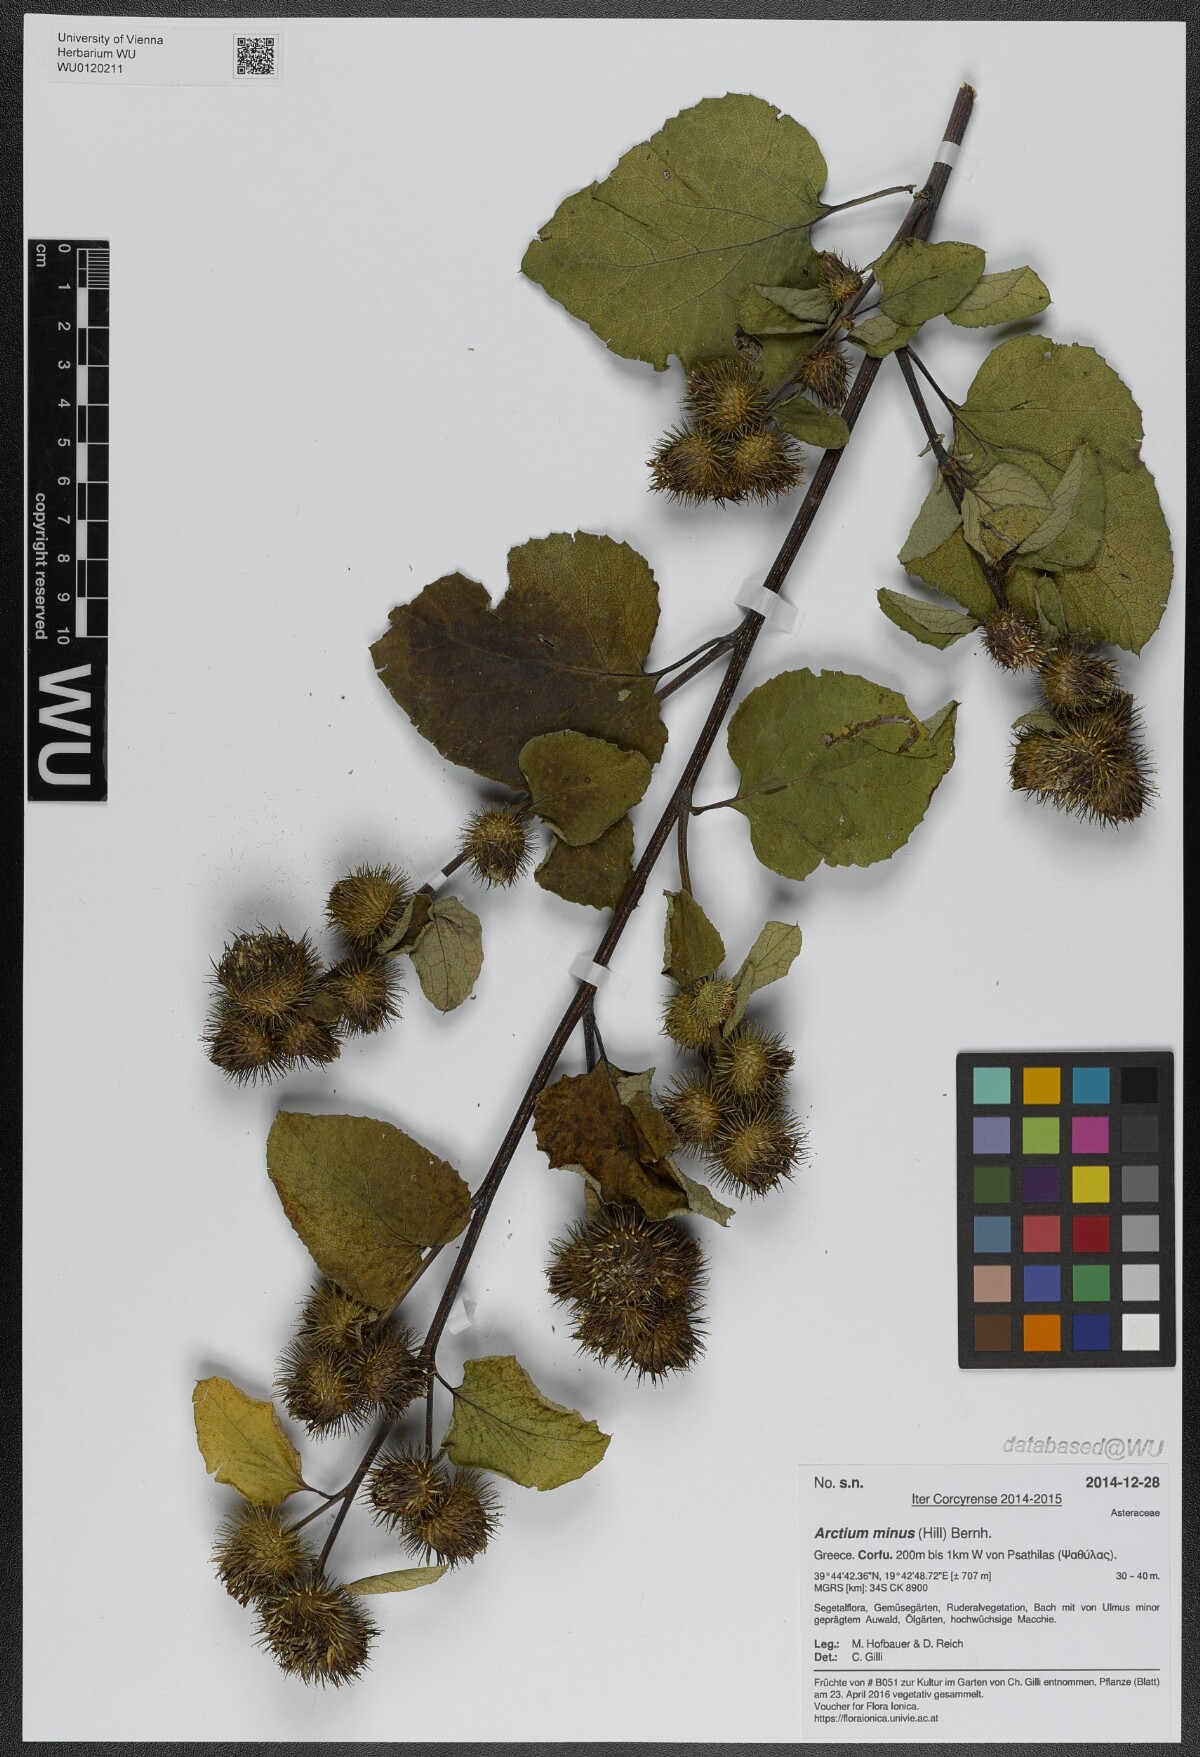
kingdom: Plantae
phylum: Tracheophyta
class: Magnoliopsida
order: Asterales
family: Asteraceae
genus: Arctium
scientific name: Arctium minus
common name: Lesser burdock
